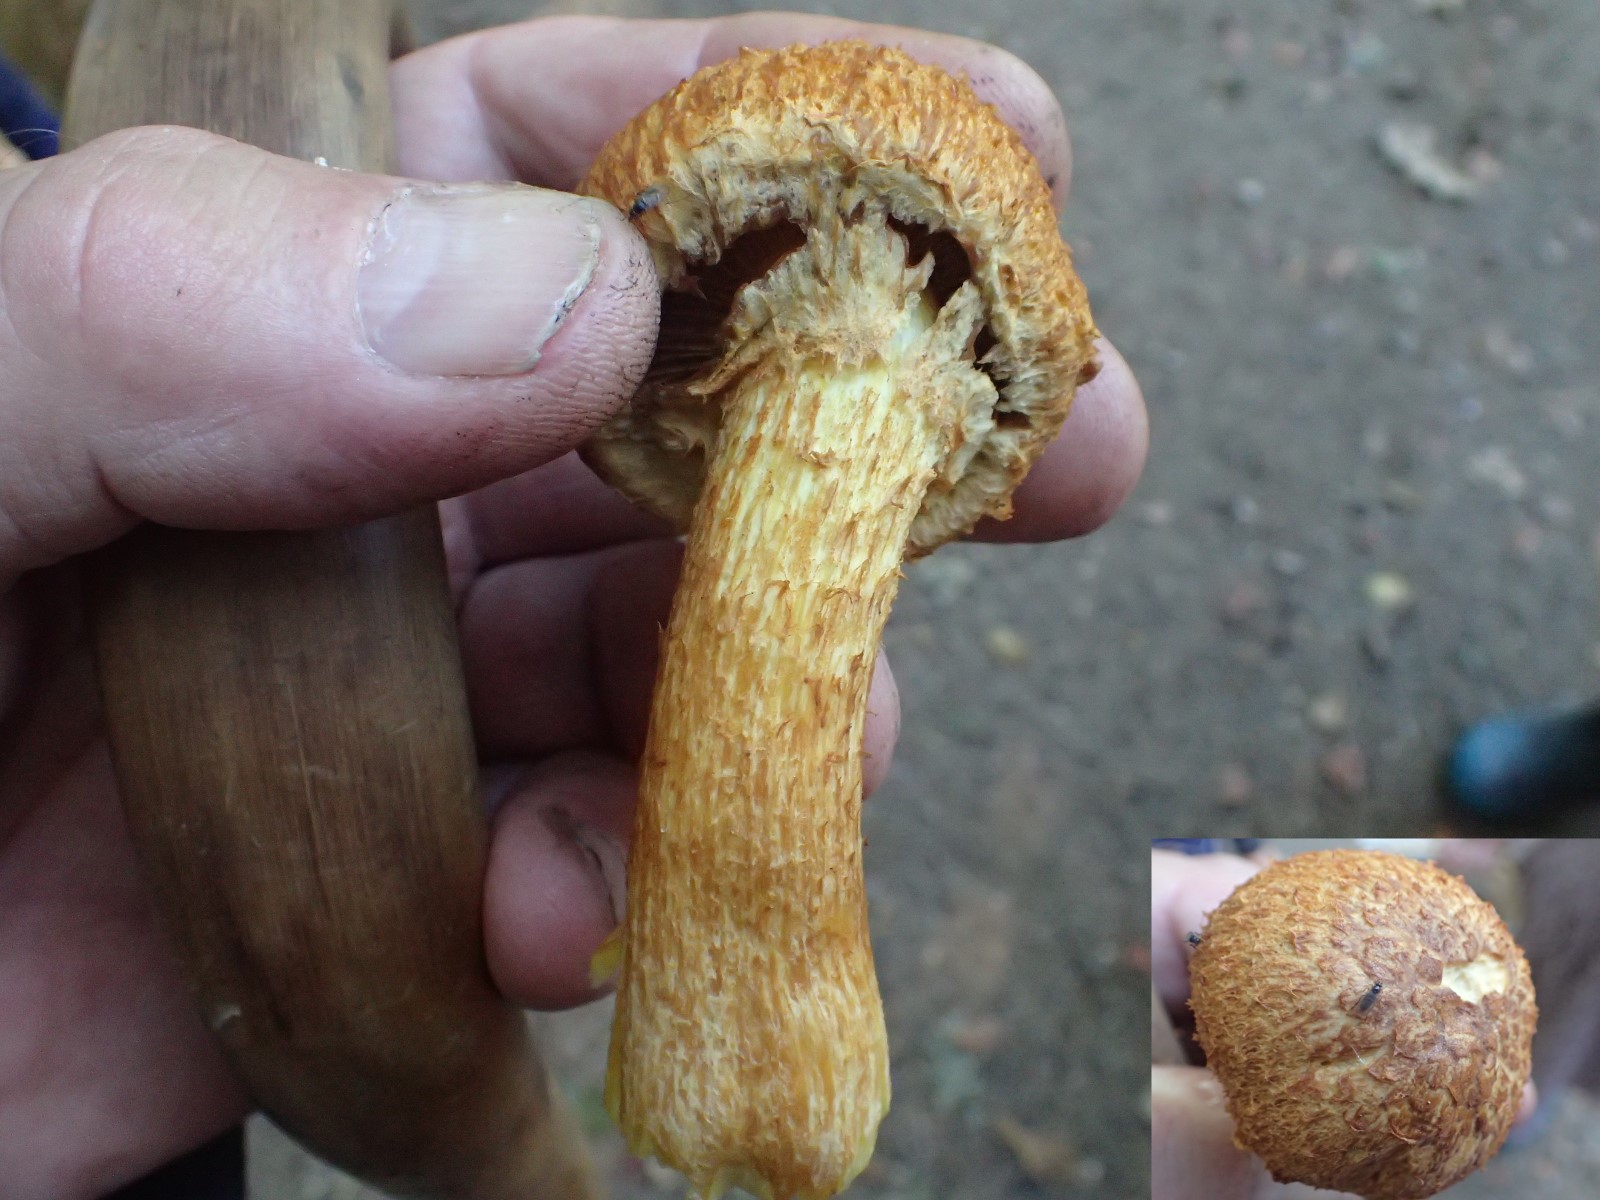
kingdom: Fungi
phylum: Basidiomycota
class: Agaricomycetes
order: Agaricales
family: Psathyrellaceae
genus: Lacrymaria
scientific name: Lacrymaria pyrotricha
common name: ildhåret mørkhat
